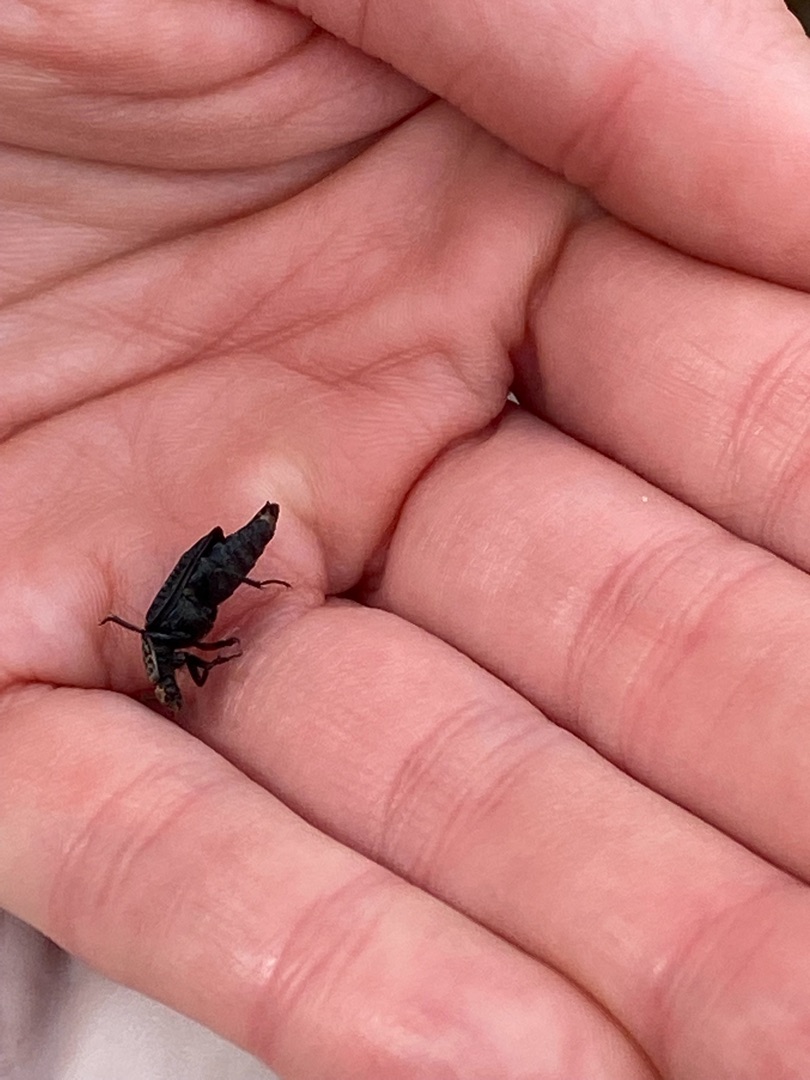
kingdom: Animalia
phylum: Arthropoda
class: Insecta
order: Coleoptera
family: Staphylinidae
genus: Thanatophilus
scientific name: Thanatophilus rugosus
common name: Rynket ådselbille
